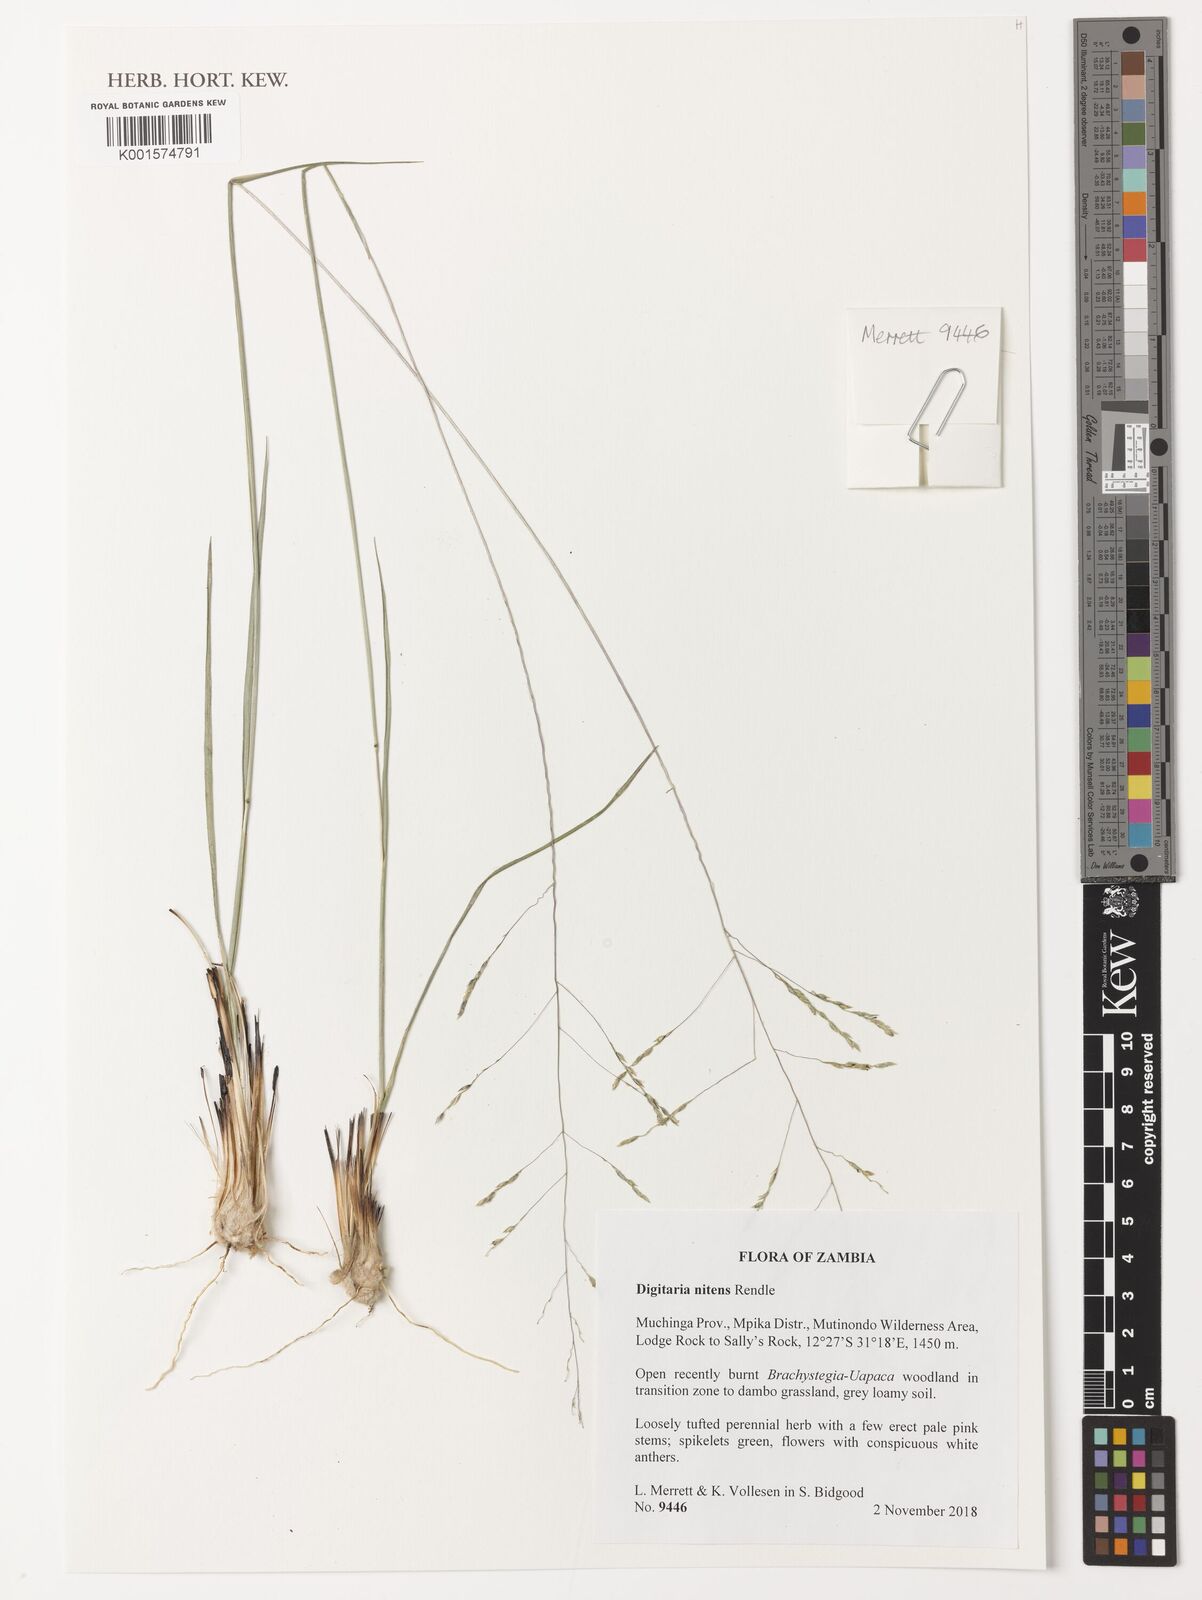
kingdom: Plantae
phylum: Tracheophyta
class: Liliopsida
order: Poales
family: Poaceae
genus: Digitaria
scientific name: Digitaria flaccida
